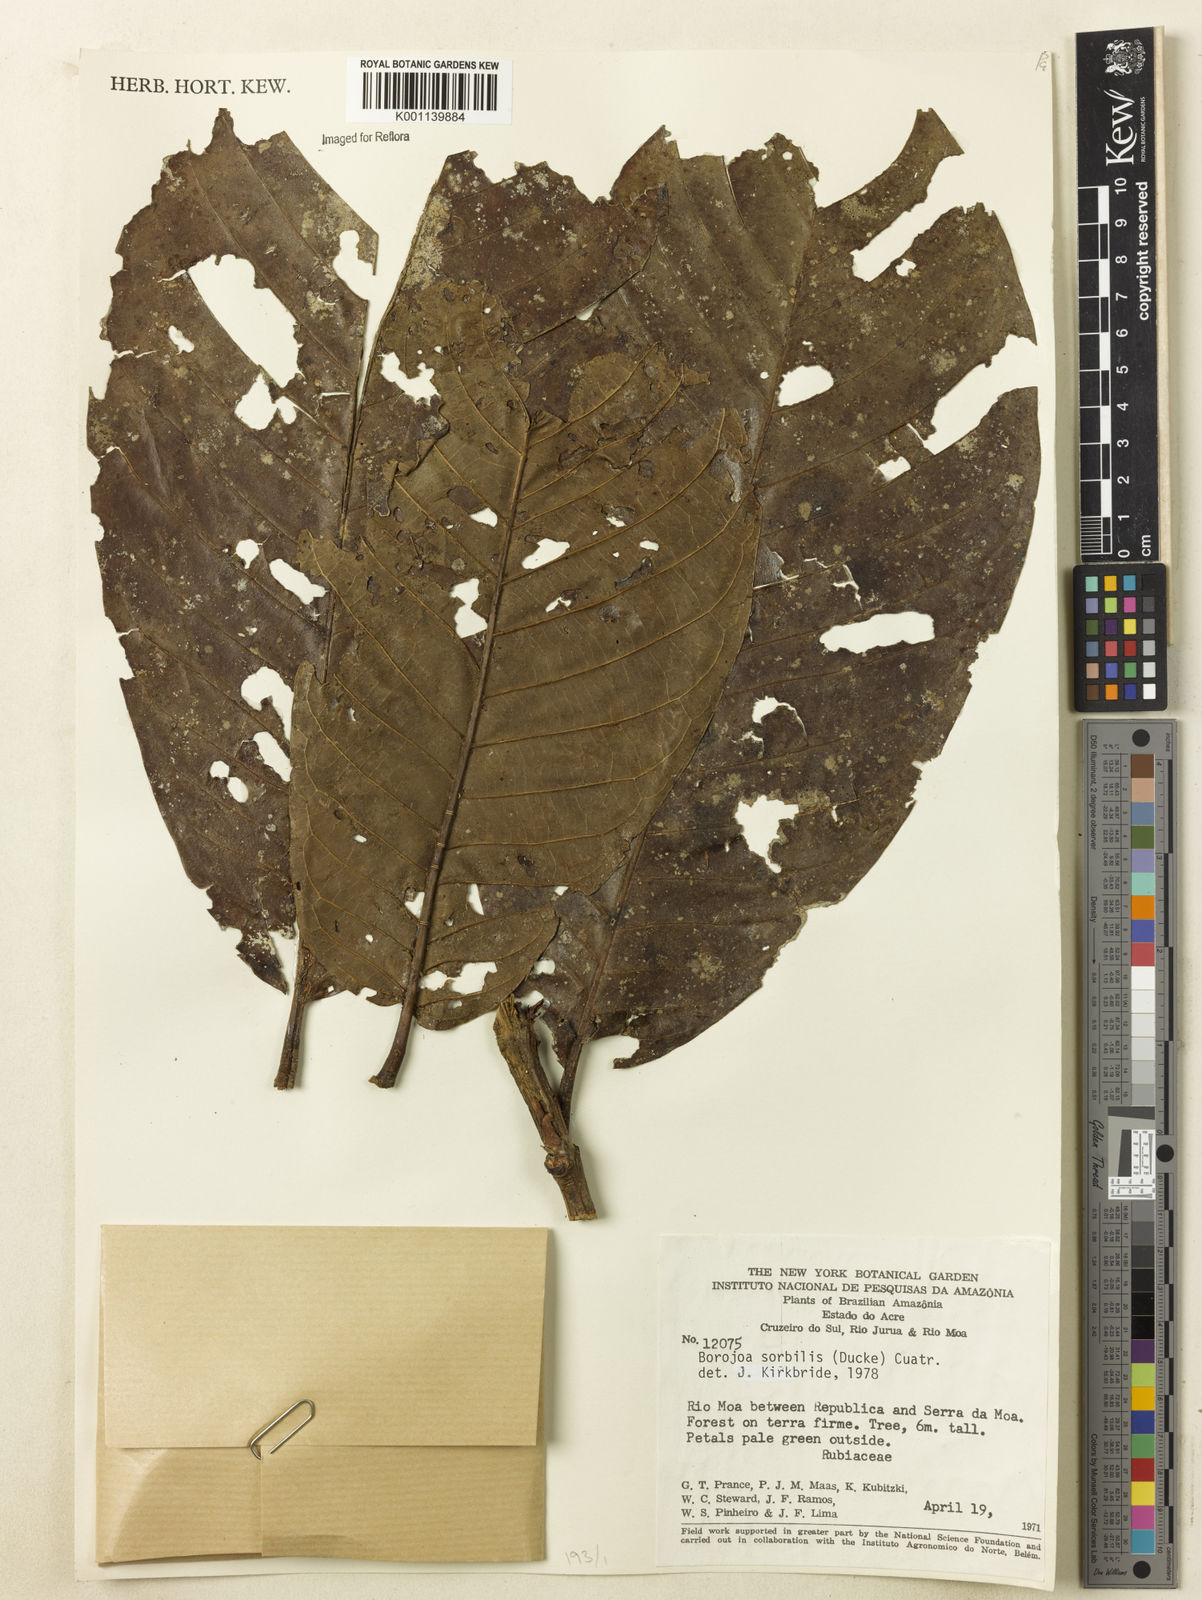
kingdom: Plantae
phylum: Tracheophyta
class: Magnoliopsida
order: Gentianales
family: Rubiaceae
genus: Alibertia
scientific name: Alibertia sorbilis
